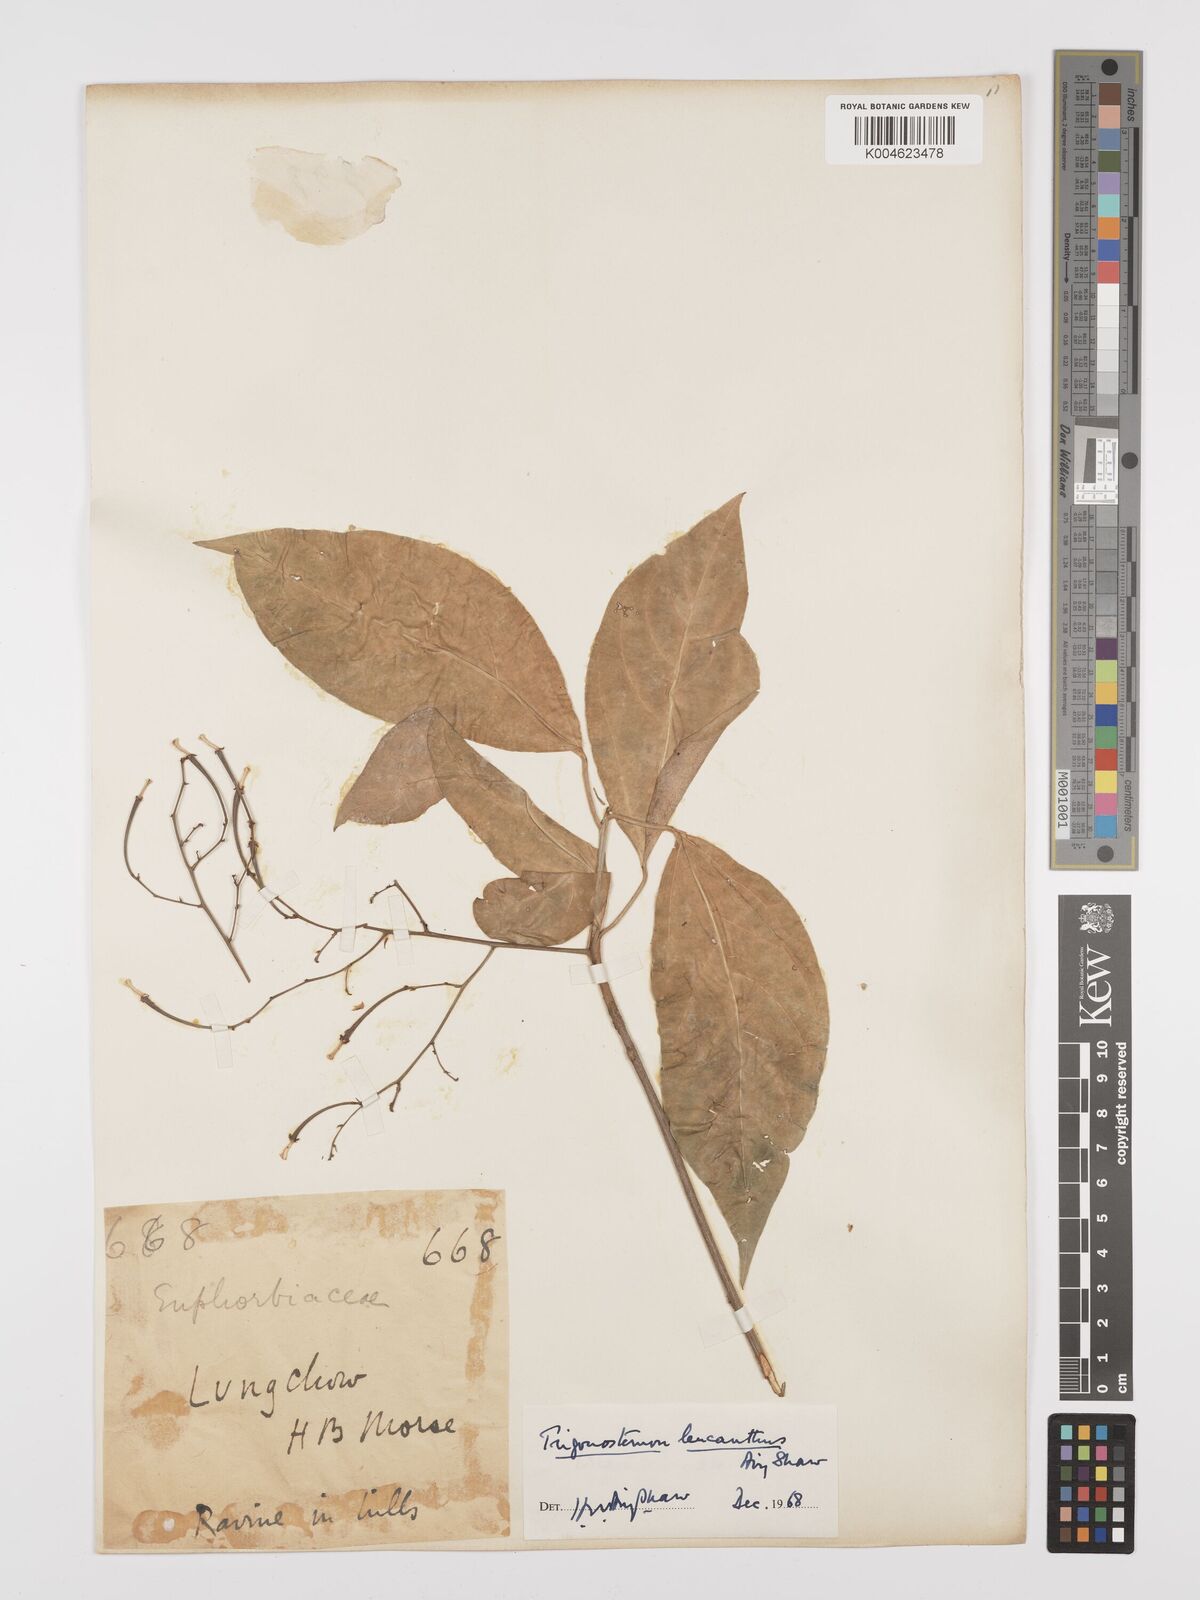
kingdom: Plantae
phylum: Tracheophyta
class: Magnoliopsida
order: Malpighiales
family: Euphorbiaceae
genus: Trigonostemon
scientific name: Trigonostemon eberhardtii
